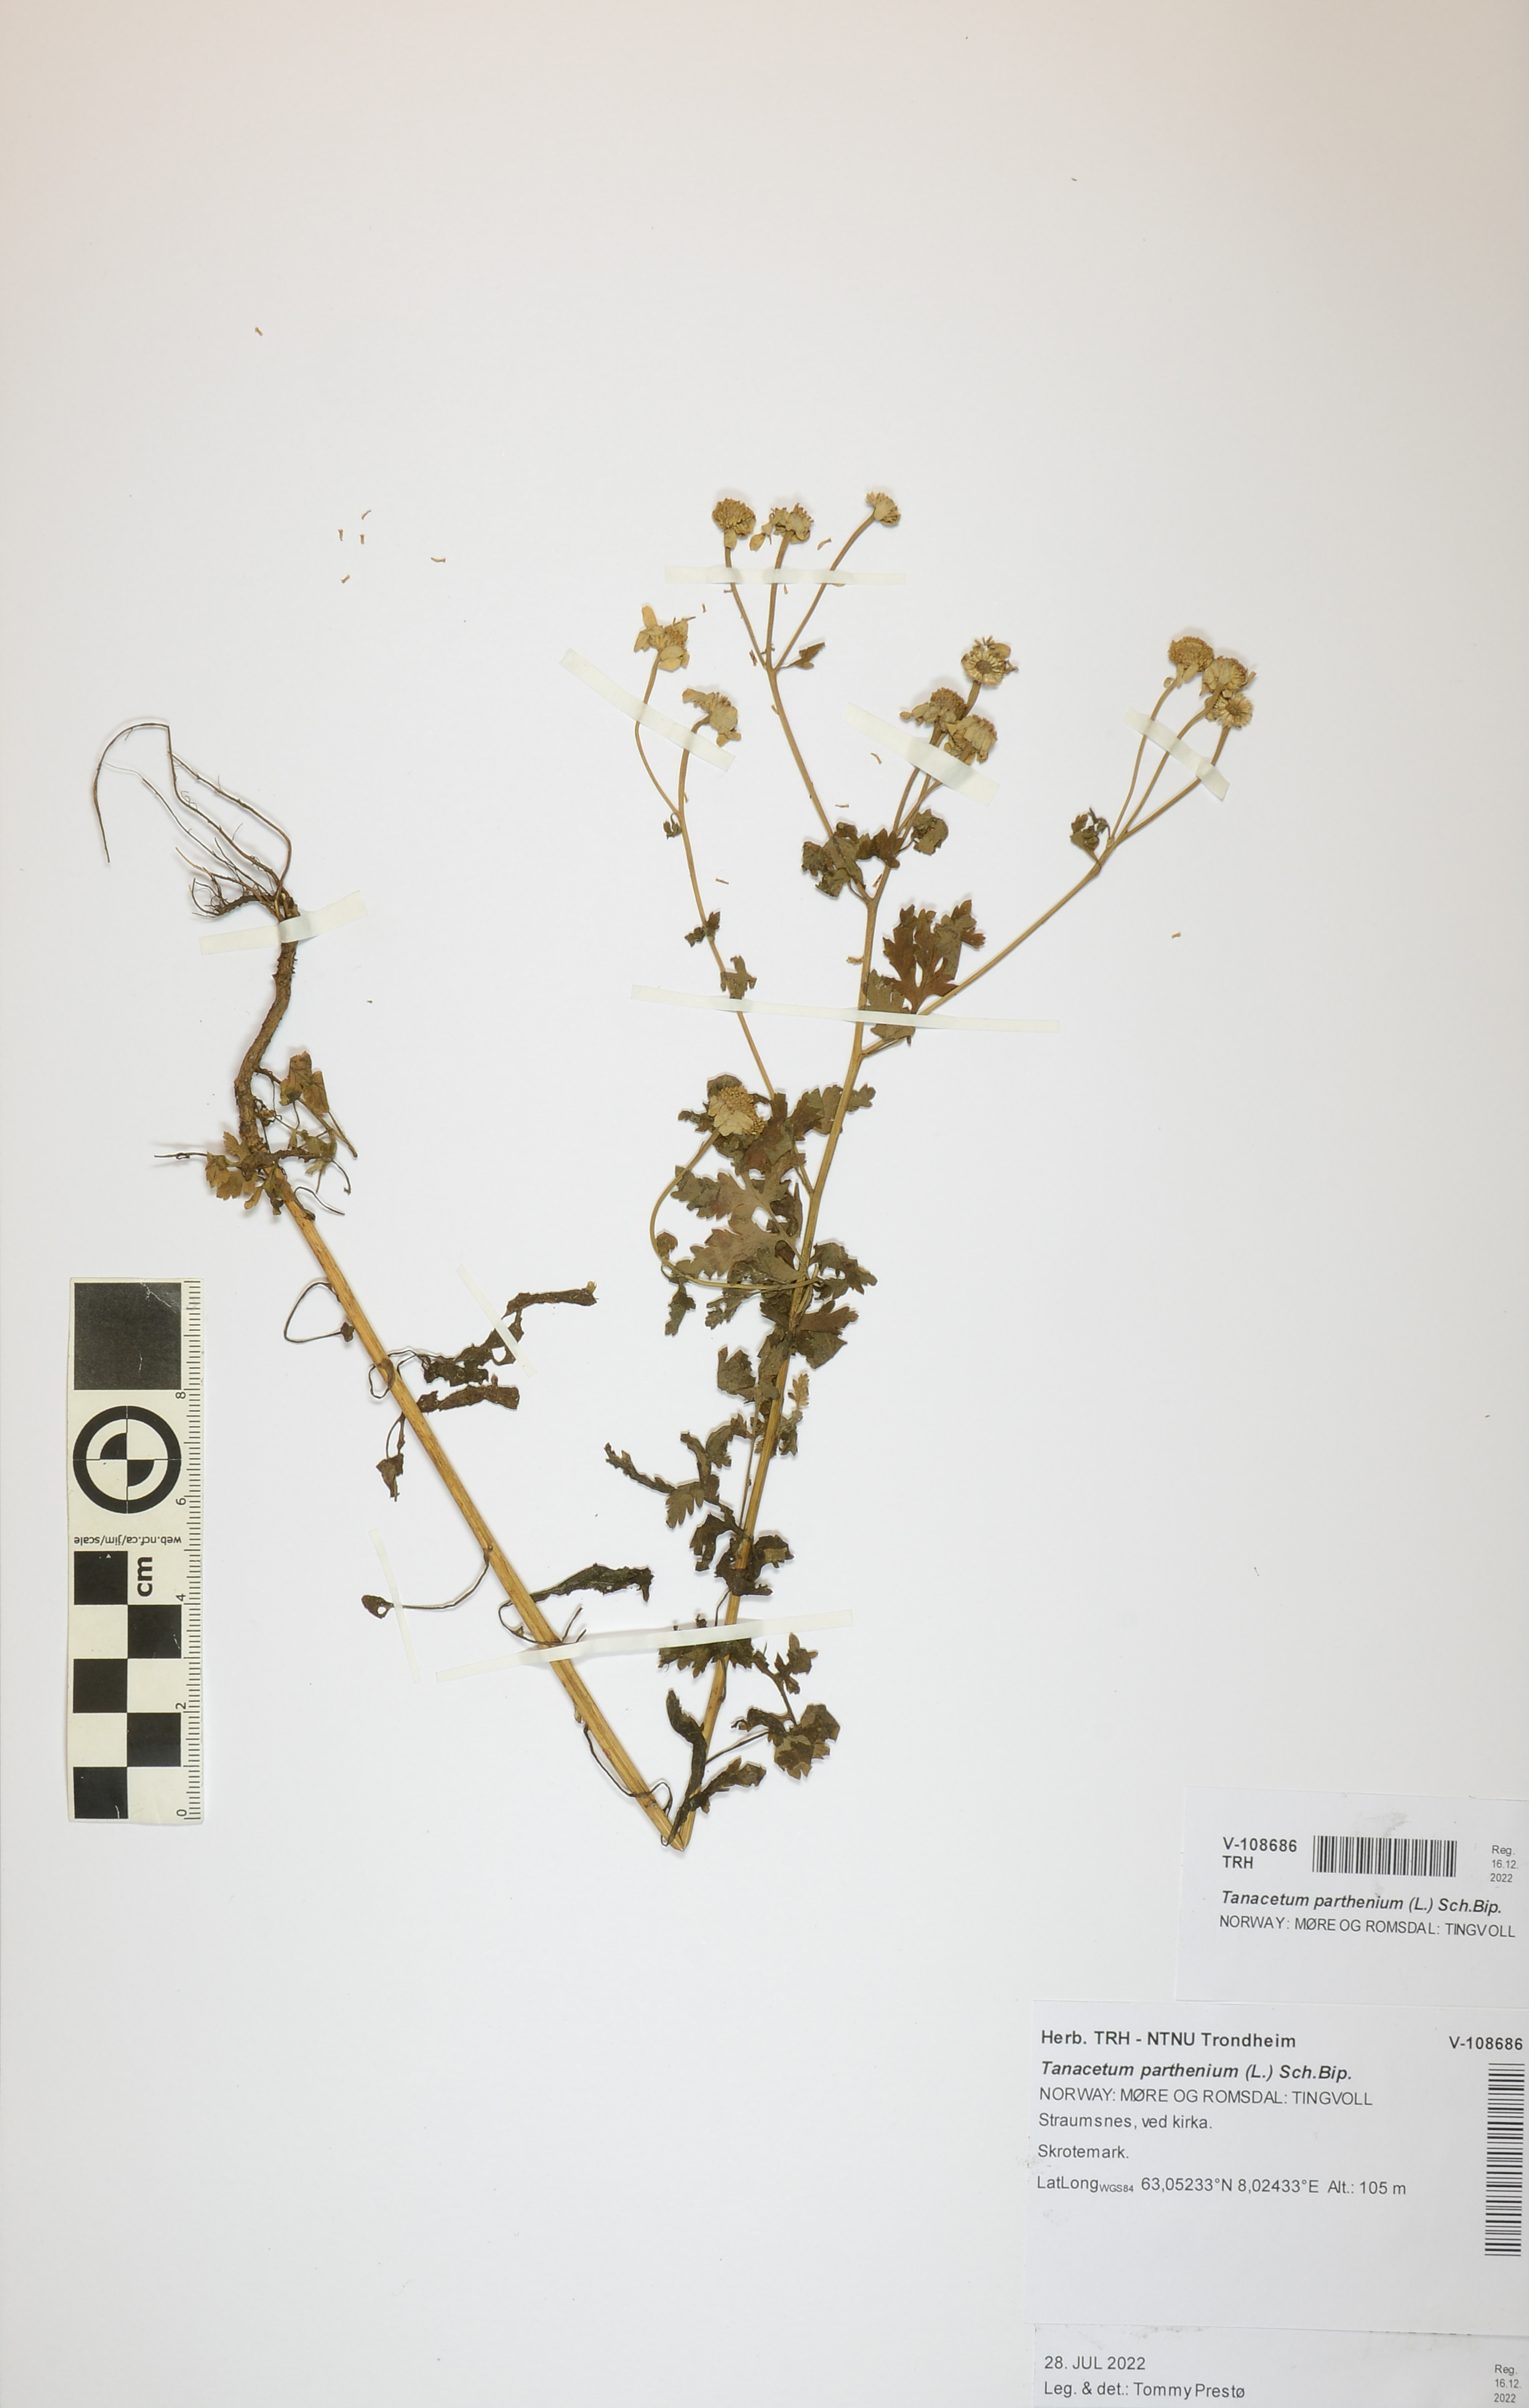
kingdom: Plantae
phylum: Tracheophyta
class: Magnoliopsida
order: Asterales
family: Asteraceae
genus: Tanacetum
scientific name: Tanacetum parthenium
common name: Feverfew
